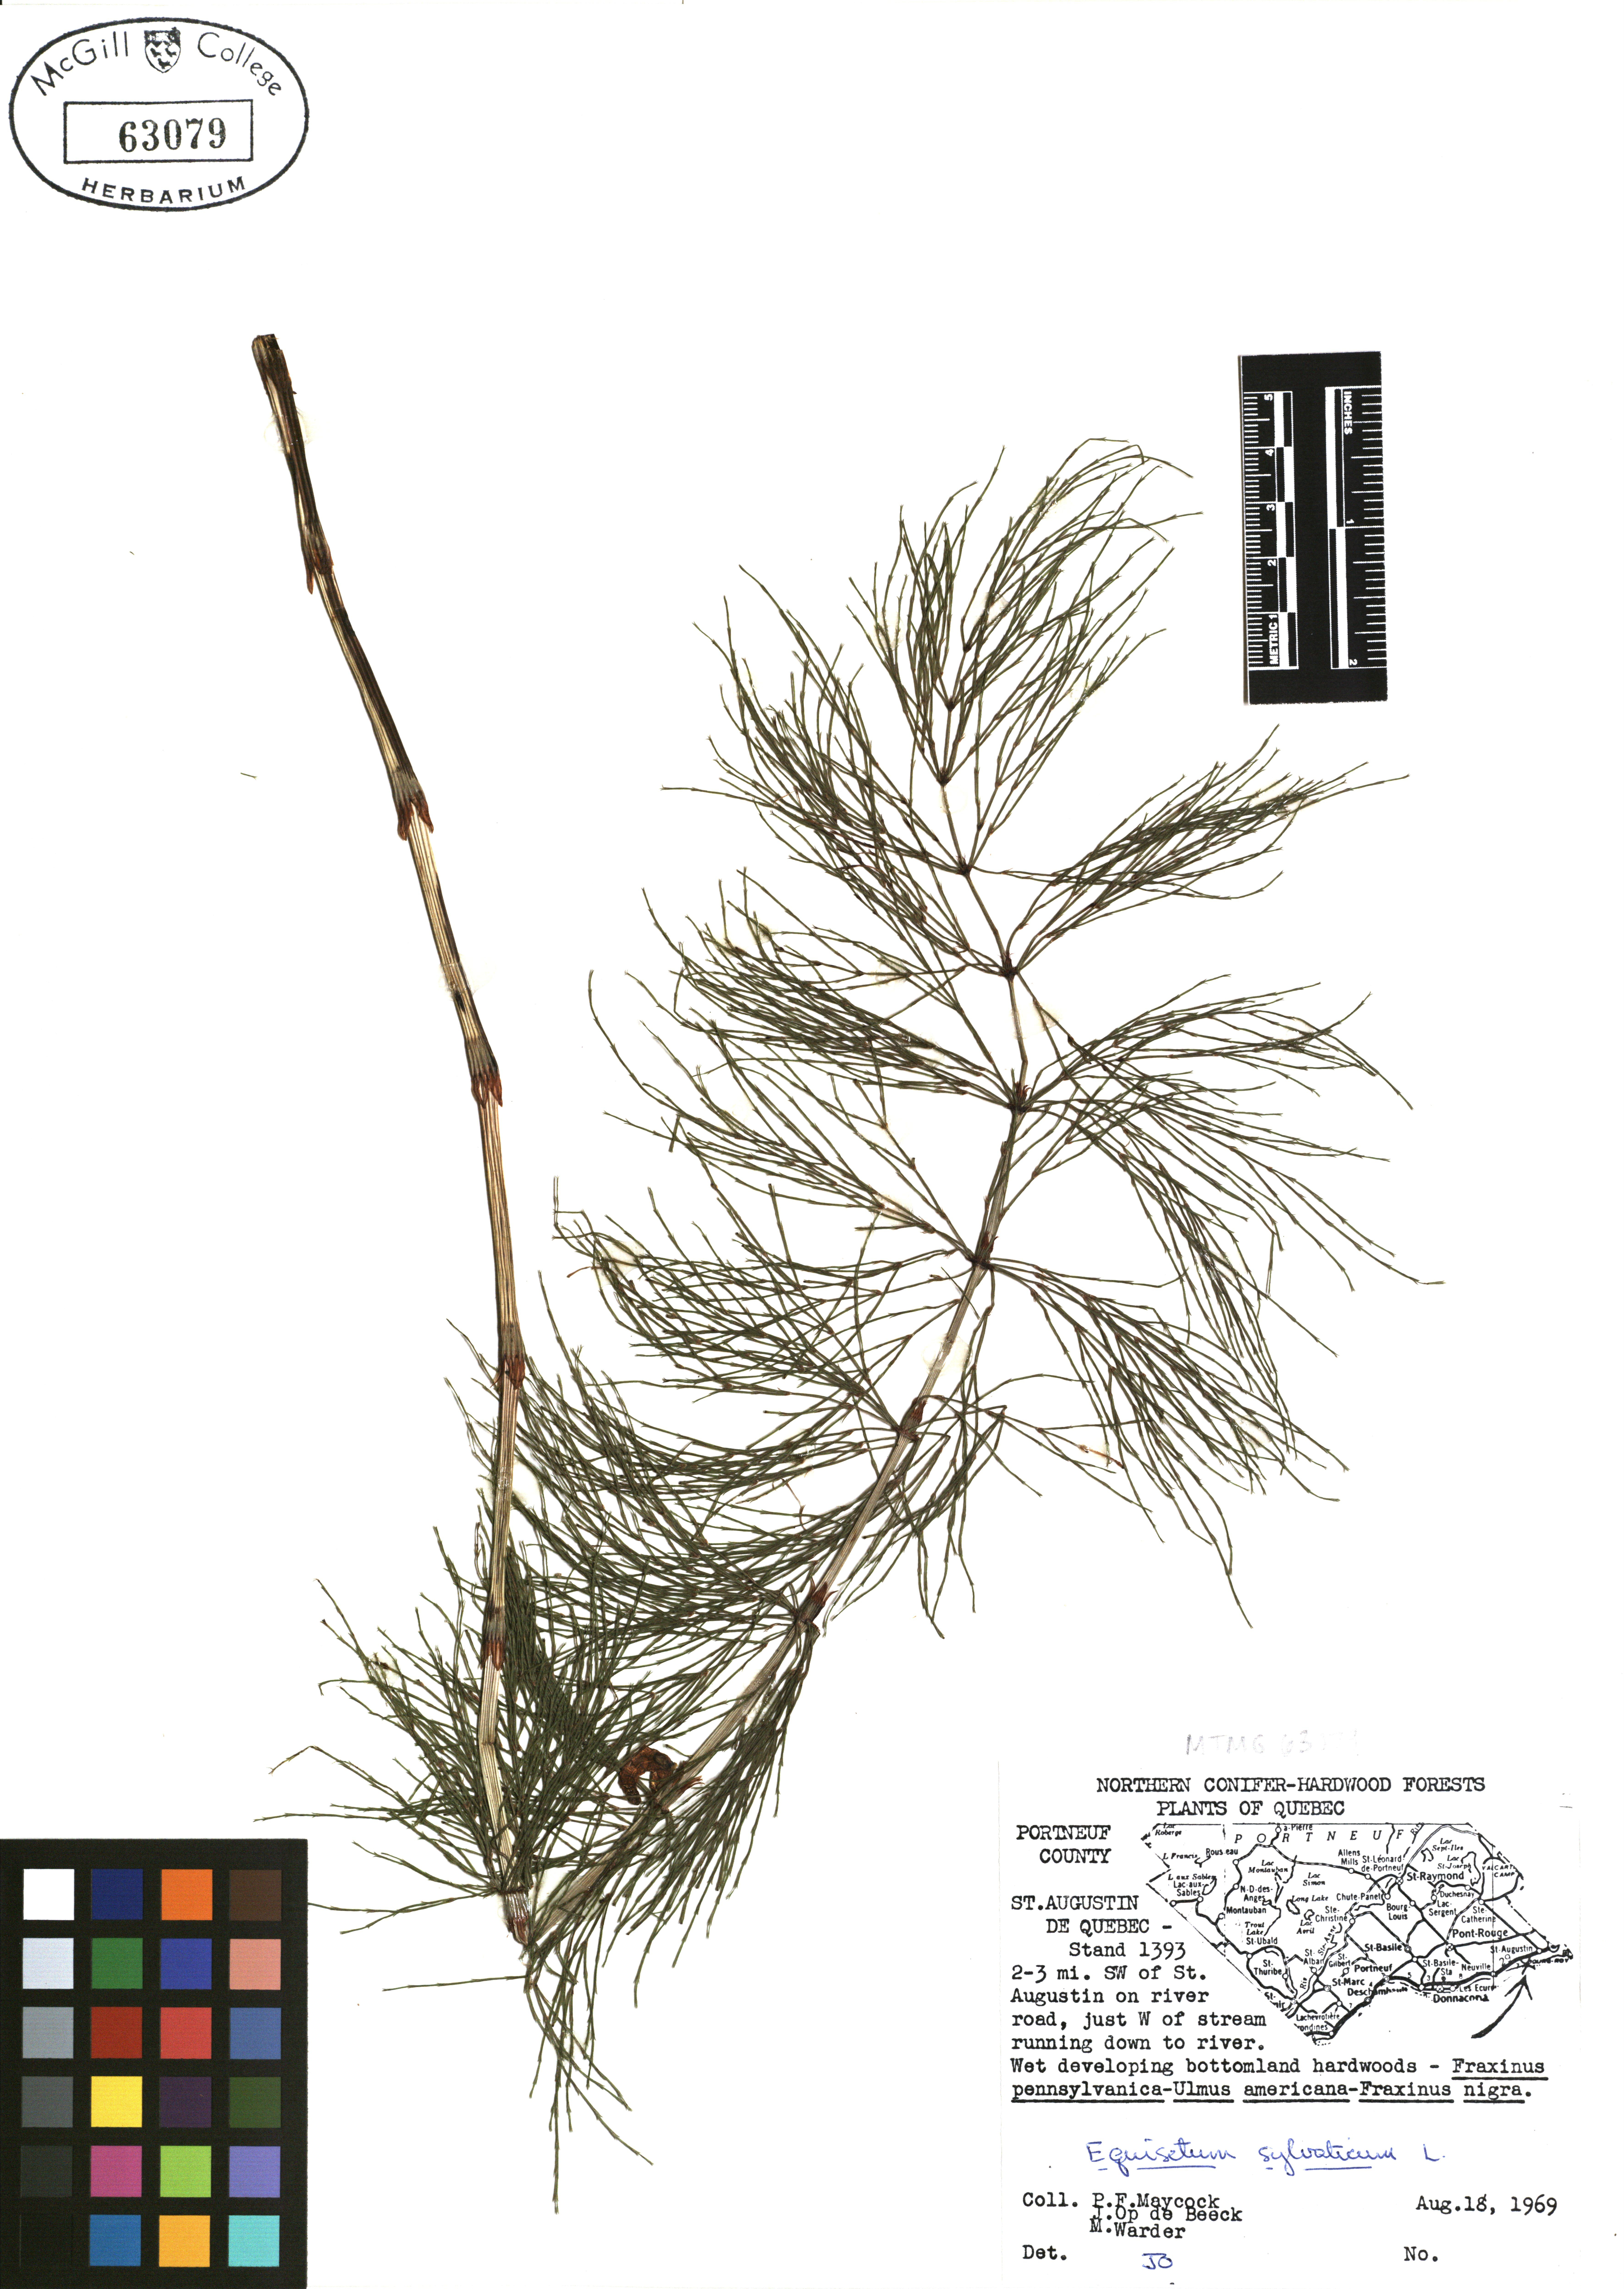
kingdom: Plantae
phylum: Tracheophyta
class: Polypodiopsida
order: Equisetales
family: Equisetaceae
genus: Equisetum
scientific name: Equisetum sylvaticum
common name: Wood horsetail
